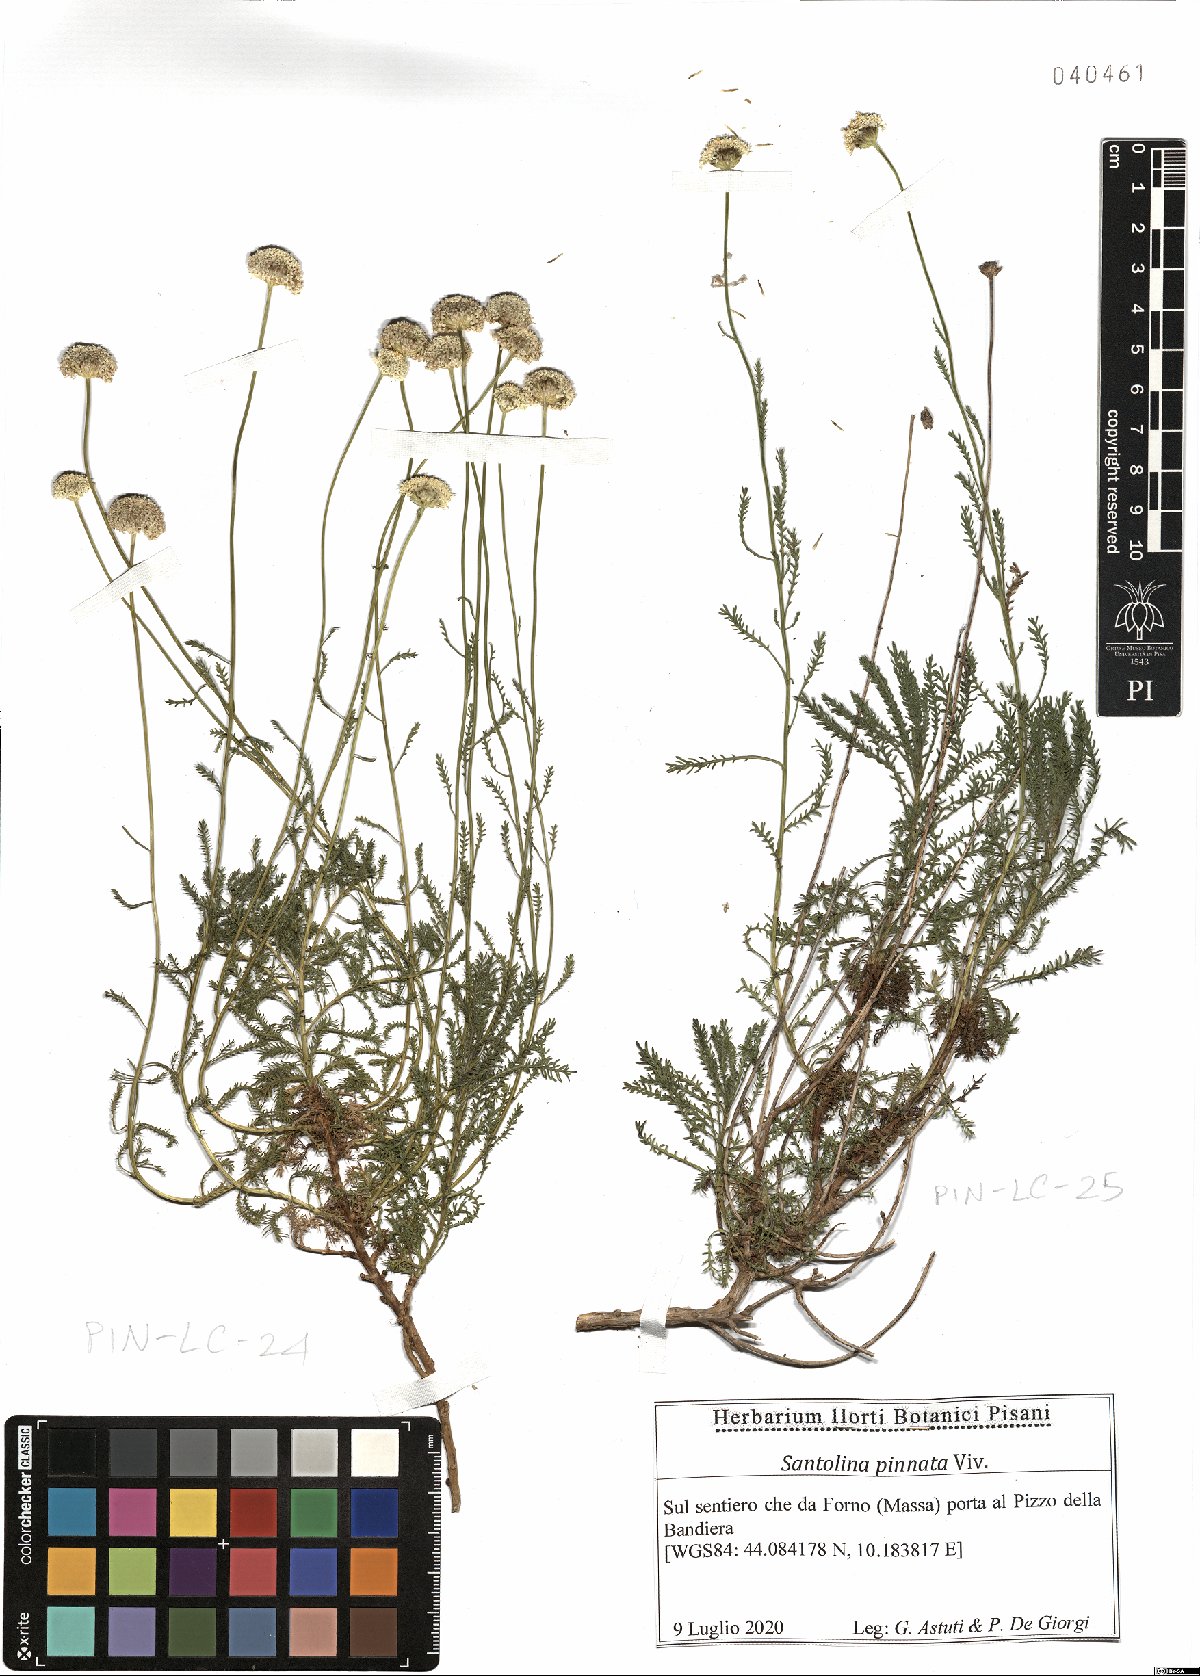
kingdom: Plantae
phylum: Tracheophyta
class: Magnoliopsida
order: Asterales
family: Asteraceae
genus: Santolina
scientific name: Santolina pinnata
